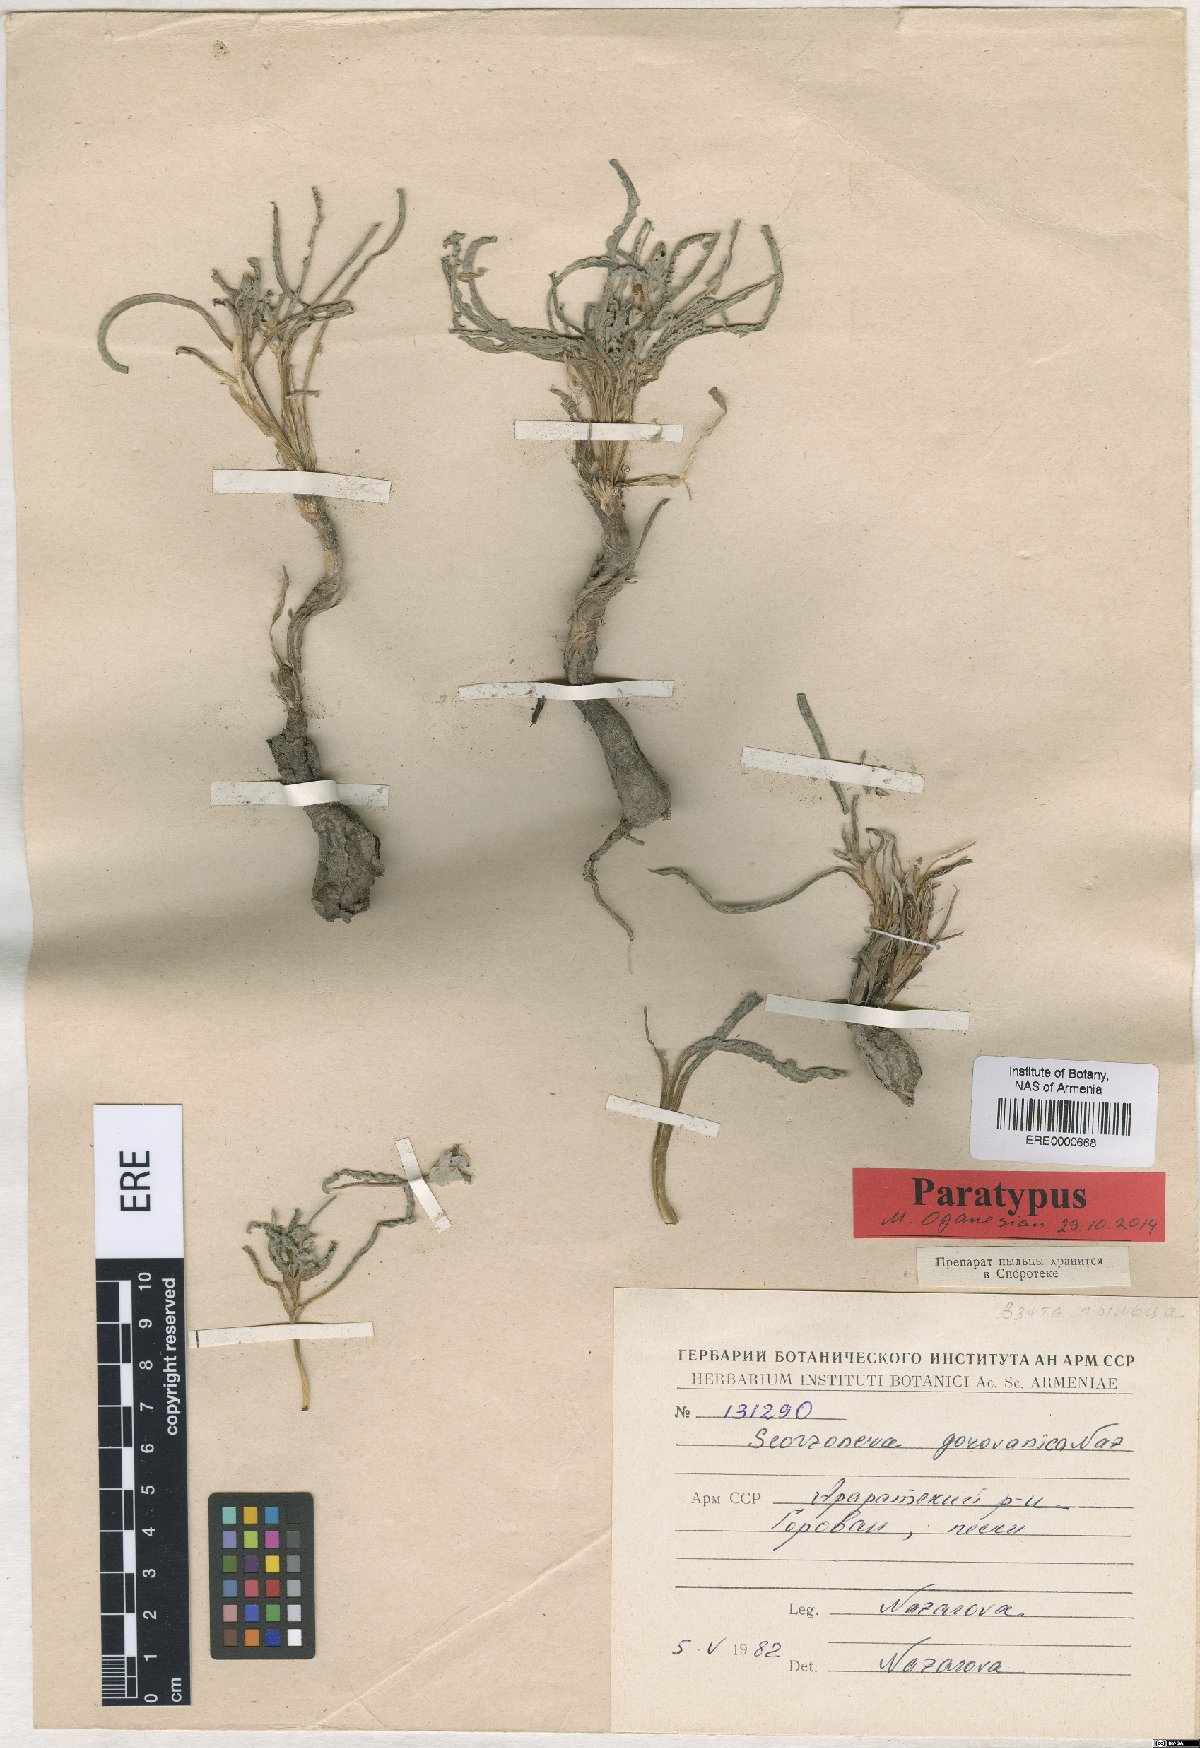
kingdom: Plantae
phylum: Tracheophyta
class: Magnoliopsida
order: Asterales
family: Asteraceae
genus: Scorzonera
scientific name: Scorzonera gorovanica
